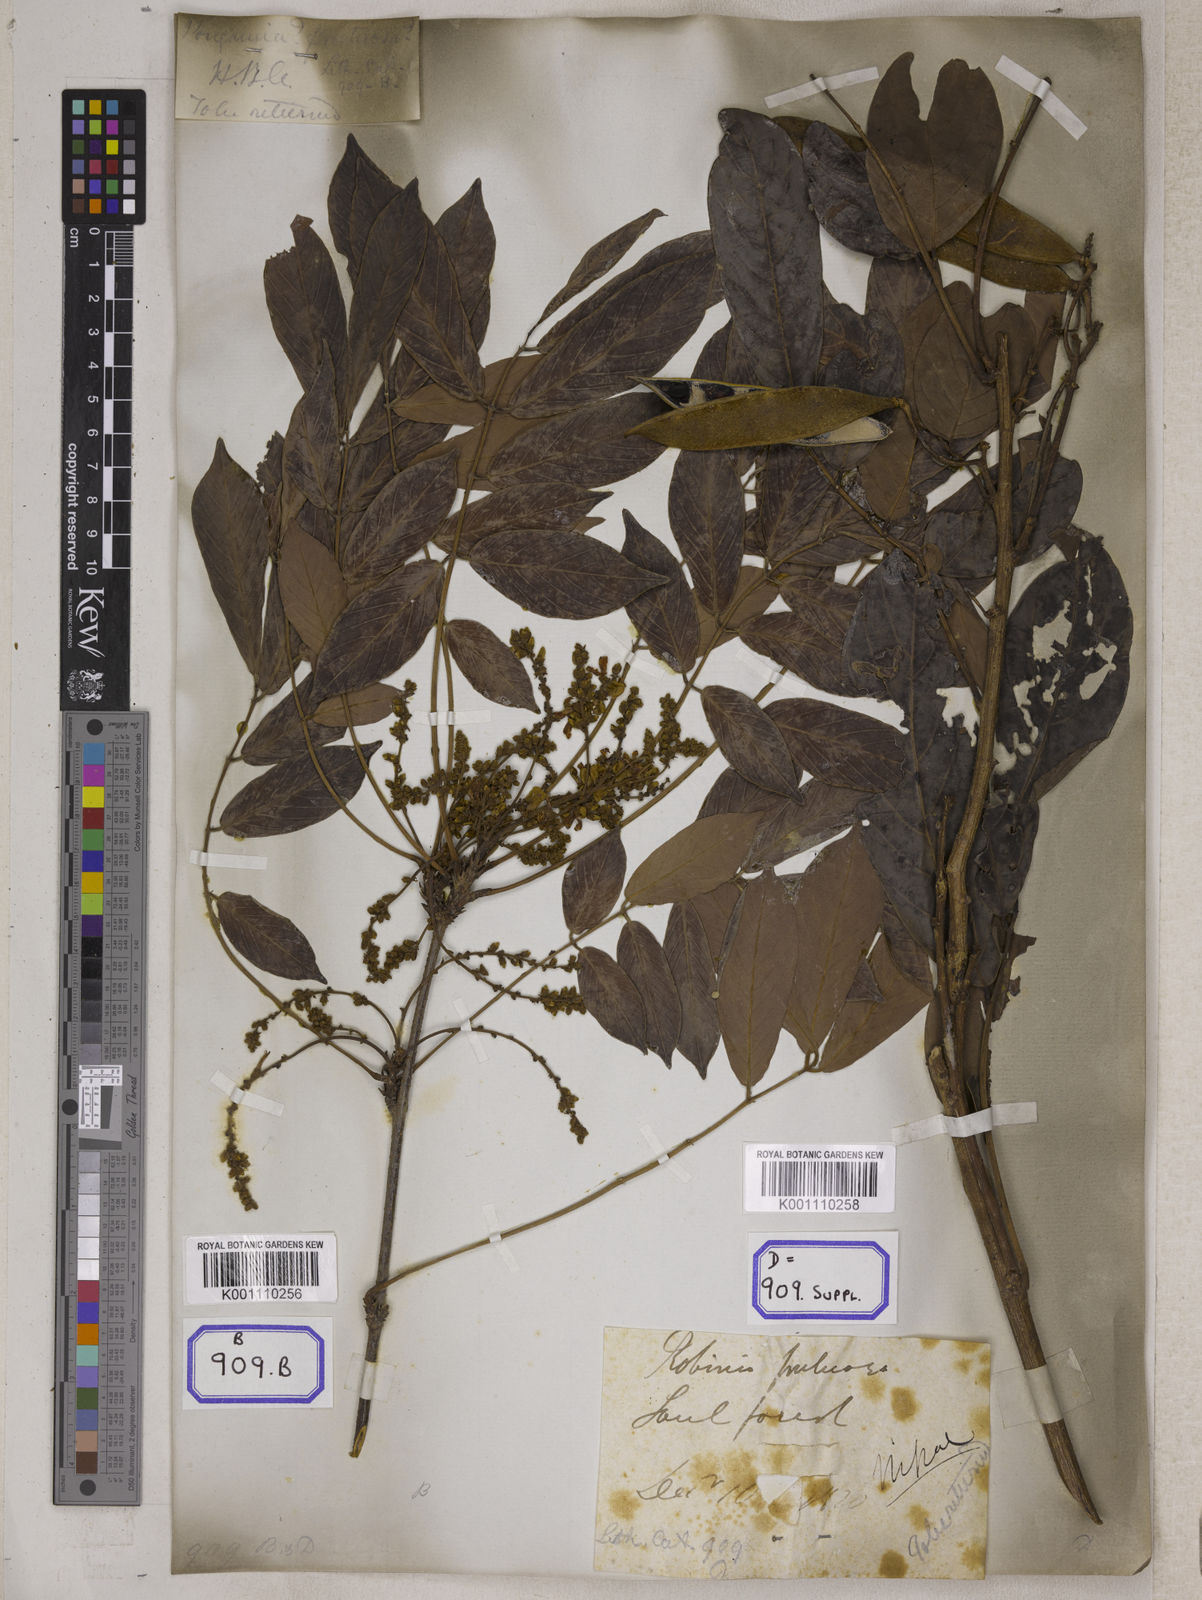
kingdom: Plantae
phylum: Tracheophyta
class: Magnoliopsida
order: Fabales
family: Fabaceae
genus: Millettia
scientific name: Millettia fruticosa
